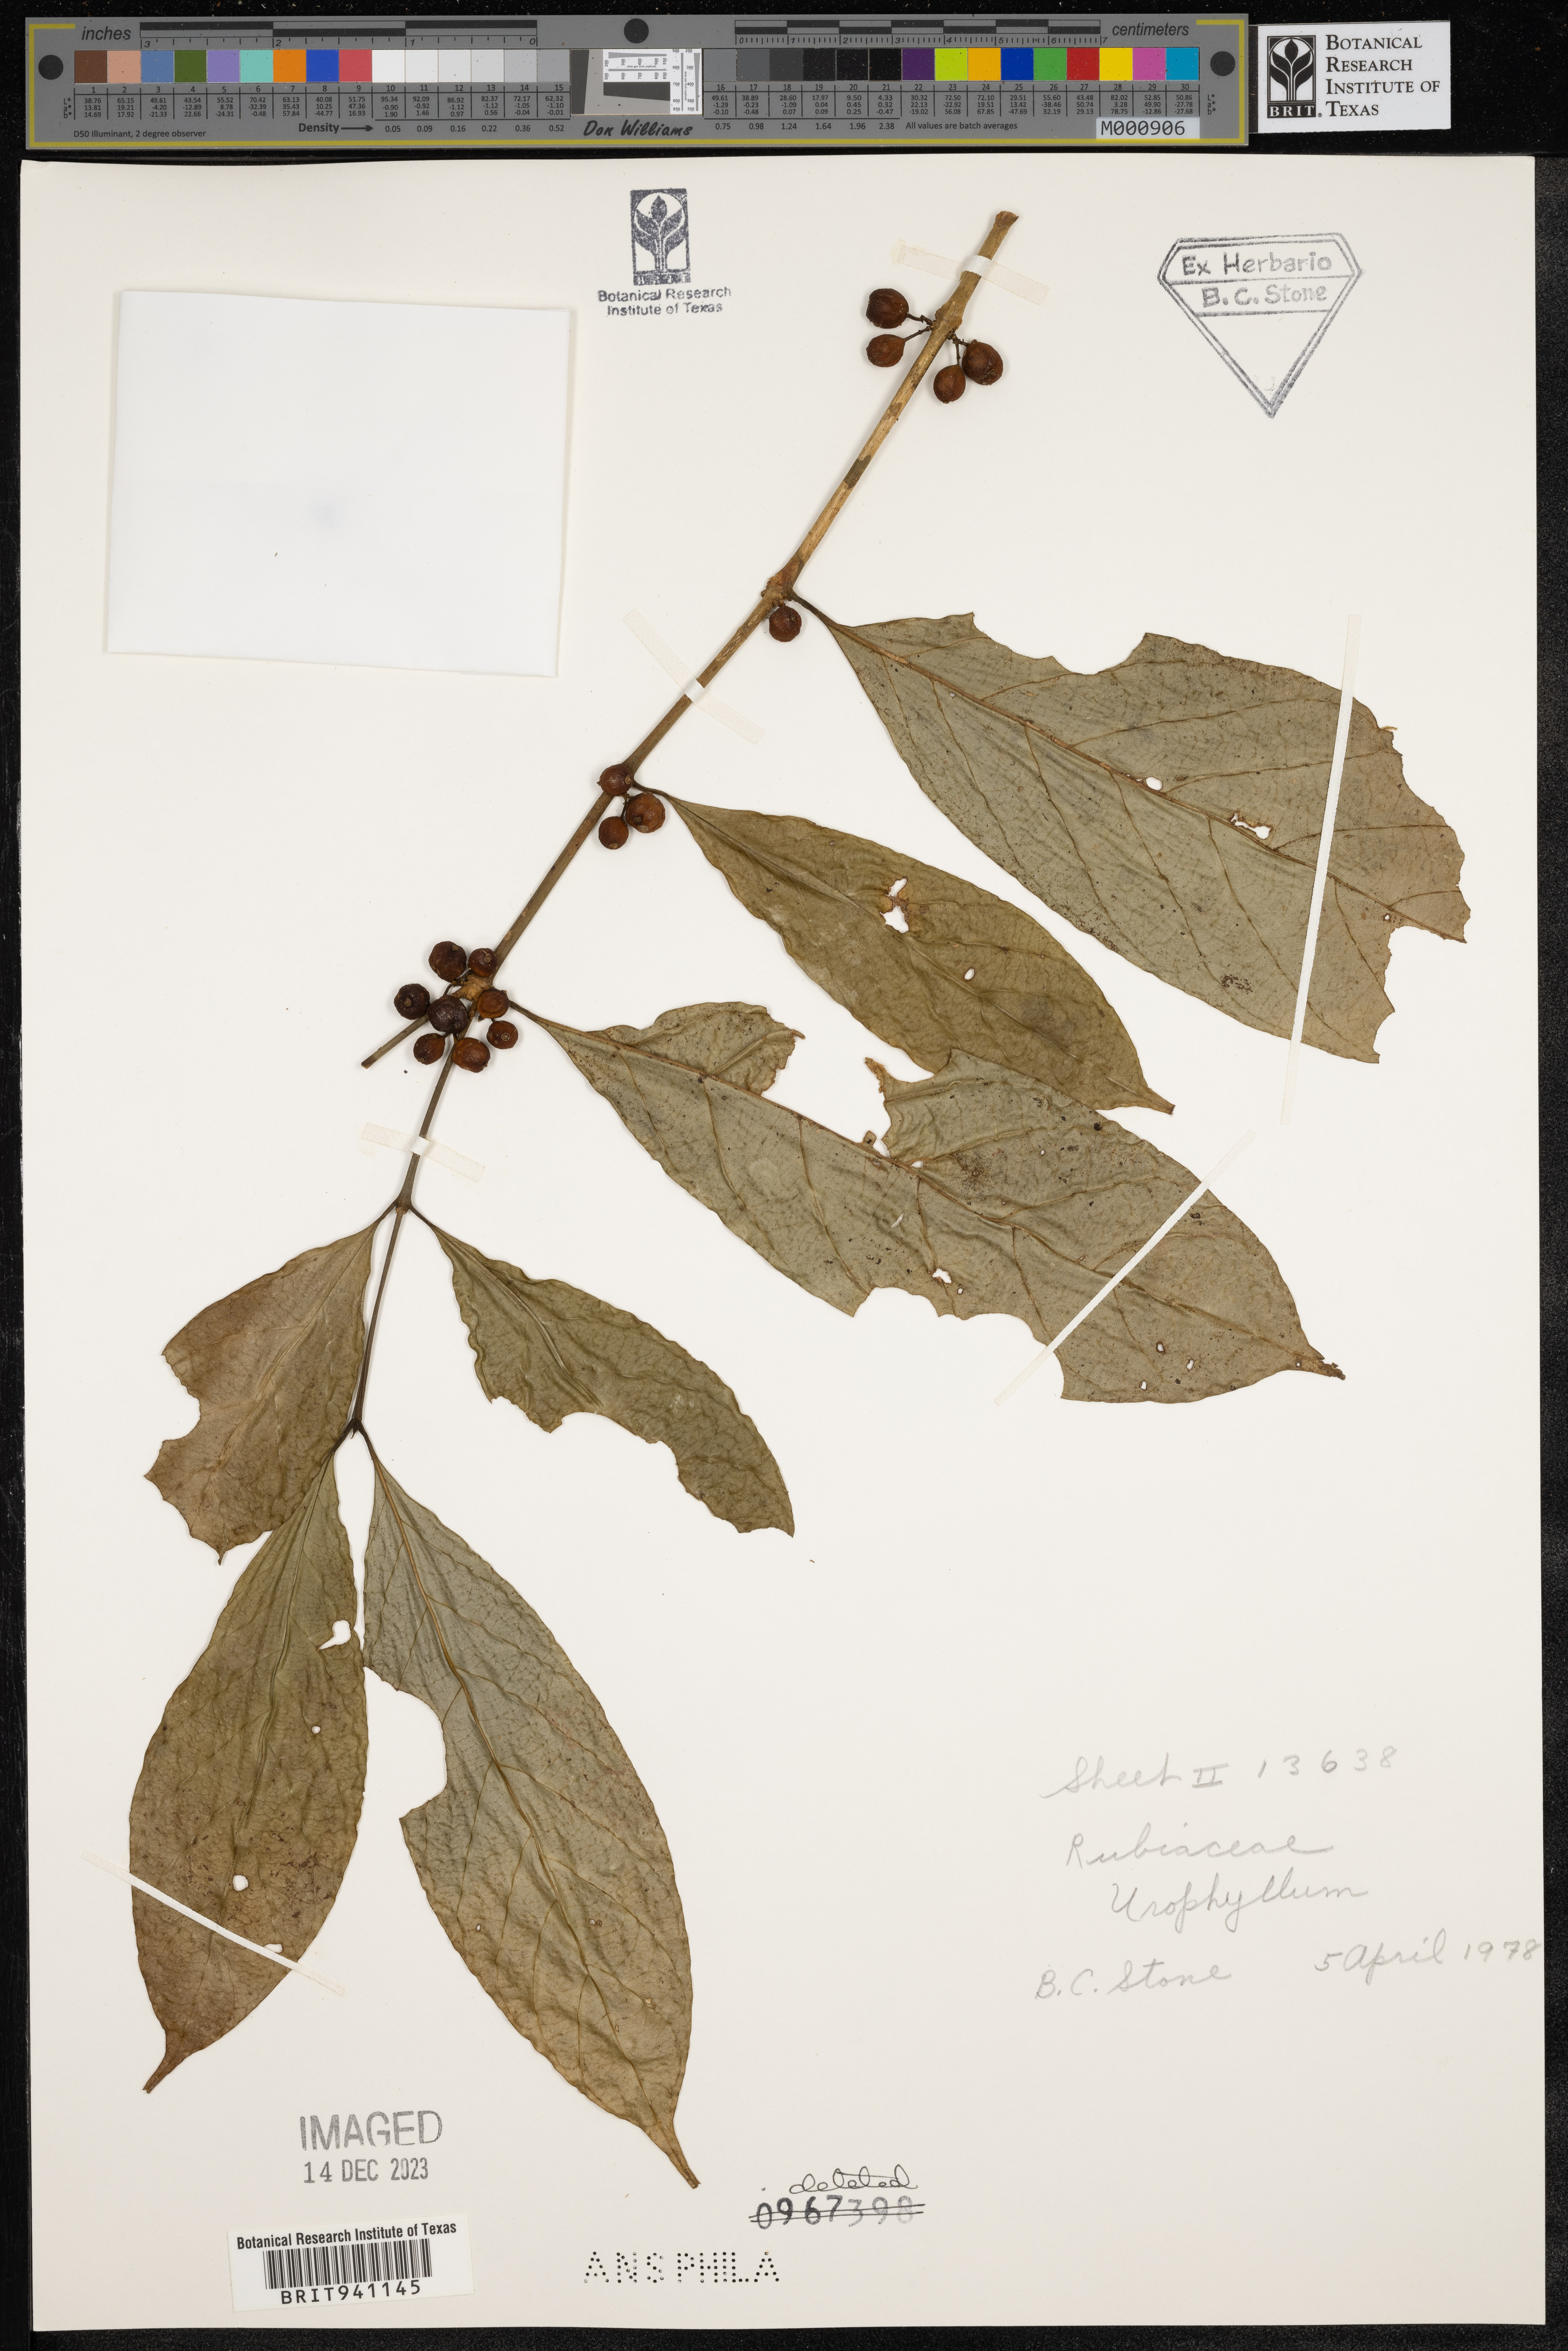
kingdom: Plantae
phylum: Tracheophyta
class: Magnoliopsida
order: Gentianales
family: Rubiaceae
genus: Urophyllum
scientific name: Urophyllum
